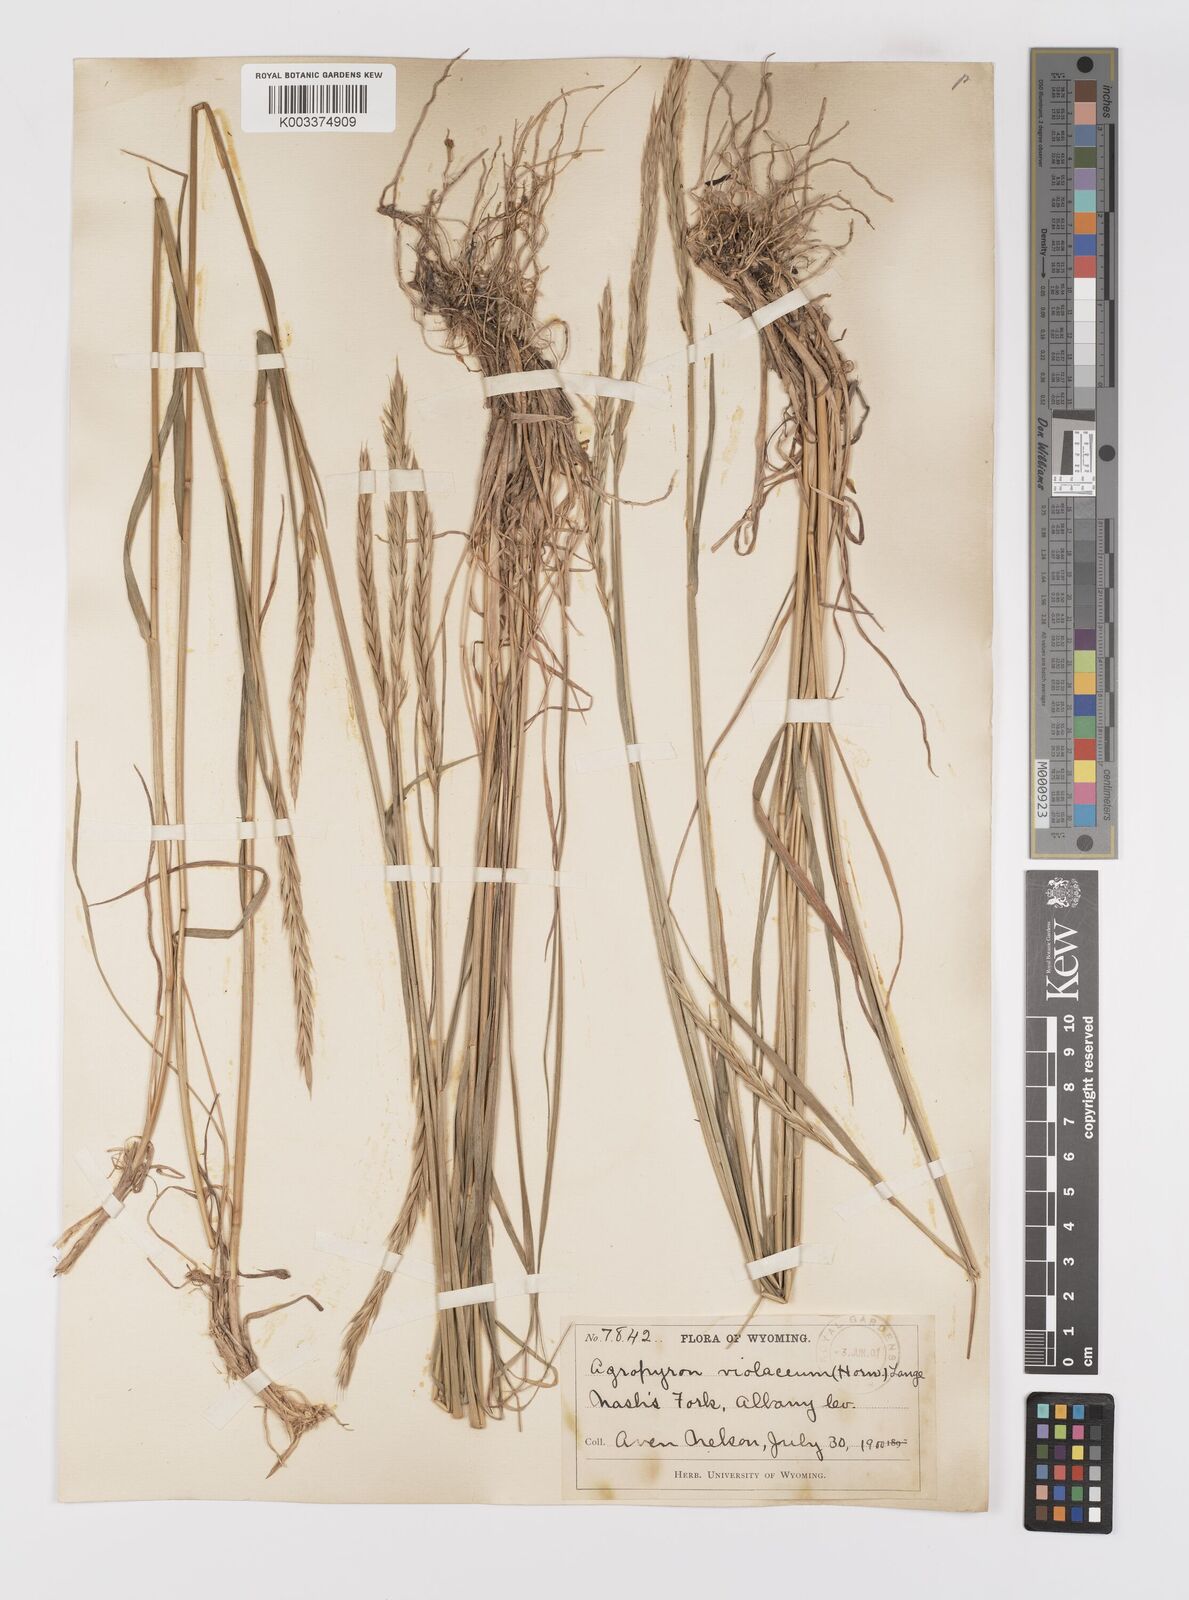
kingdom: Plantae
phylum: Tracheophyta
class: Liliopsida
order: Poales
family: Poaceae
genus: Elymus
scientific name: Elymus violaceus
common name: Arctic wheatgrass
